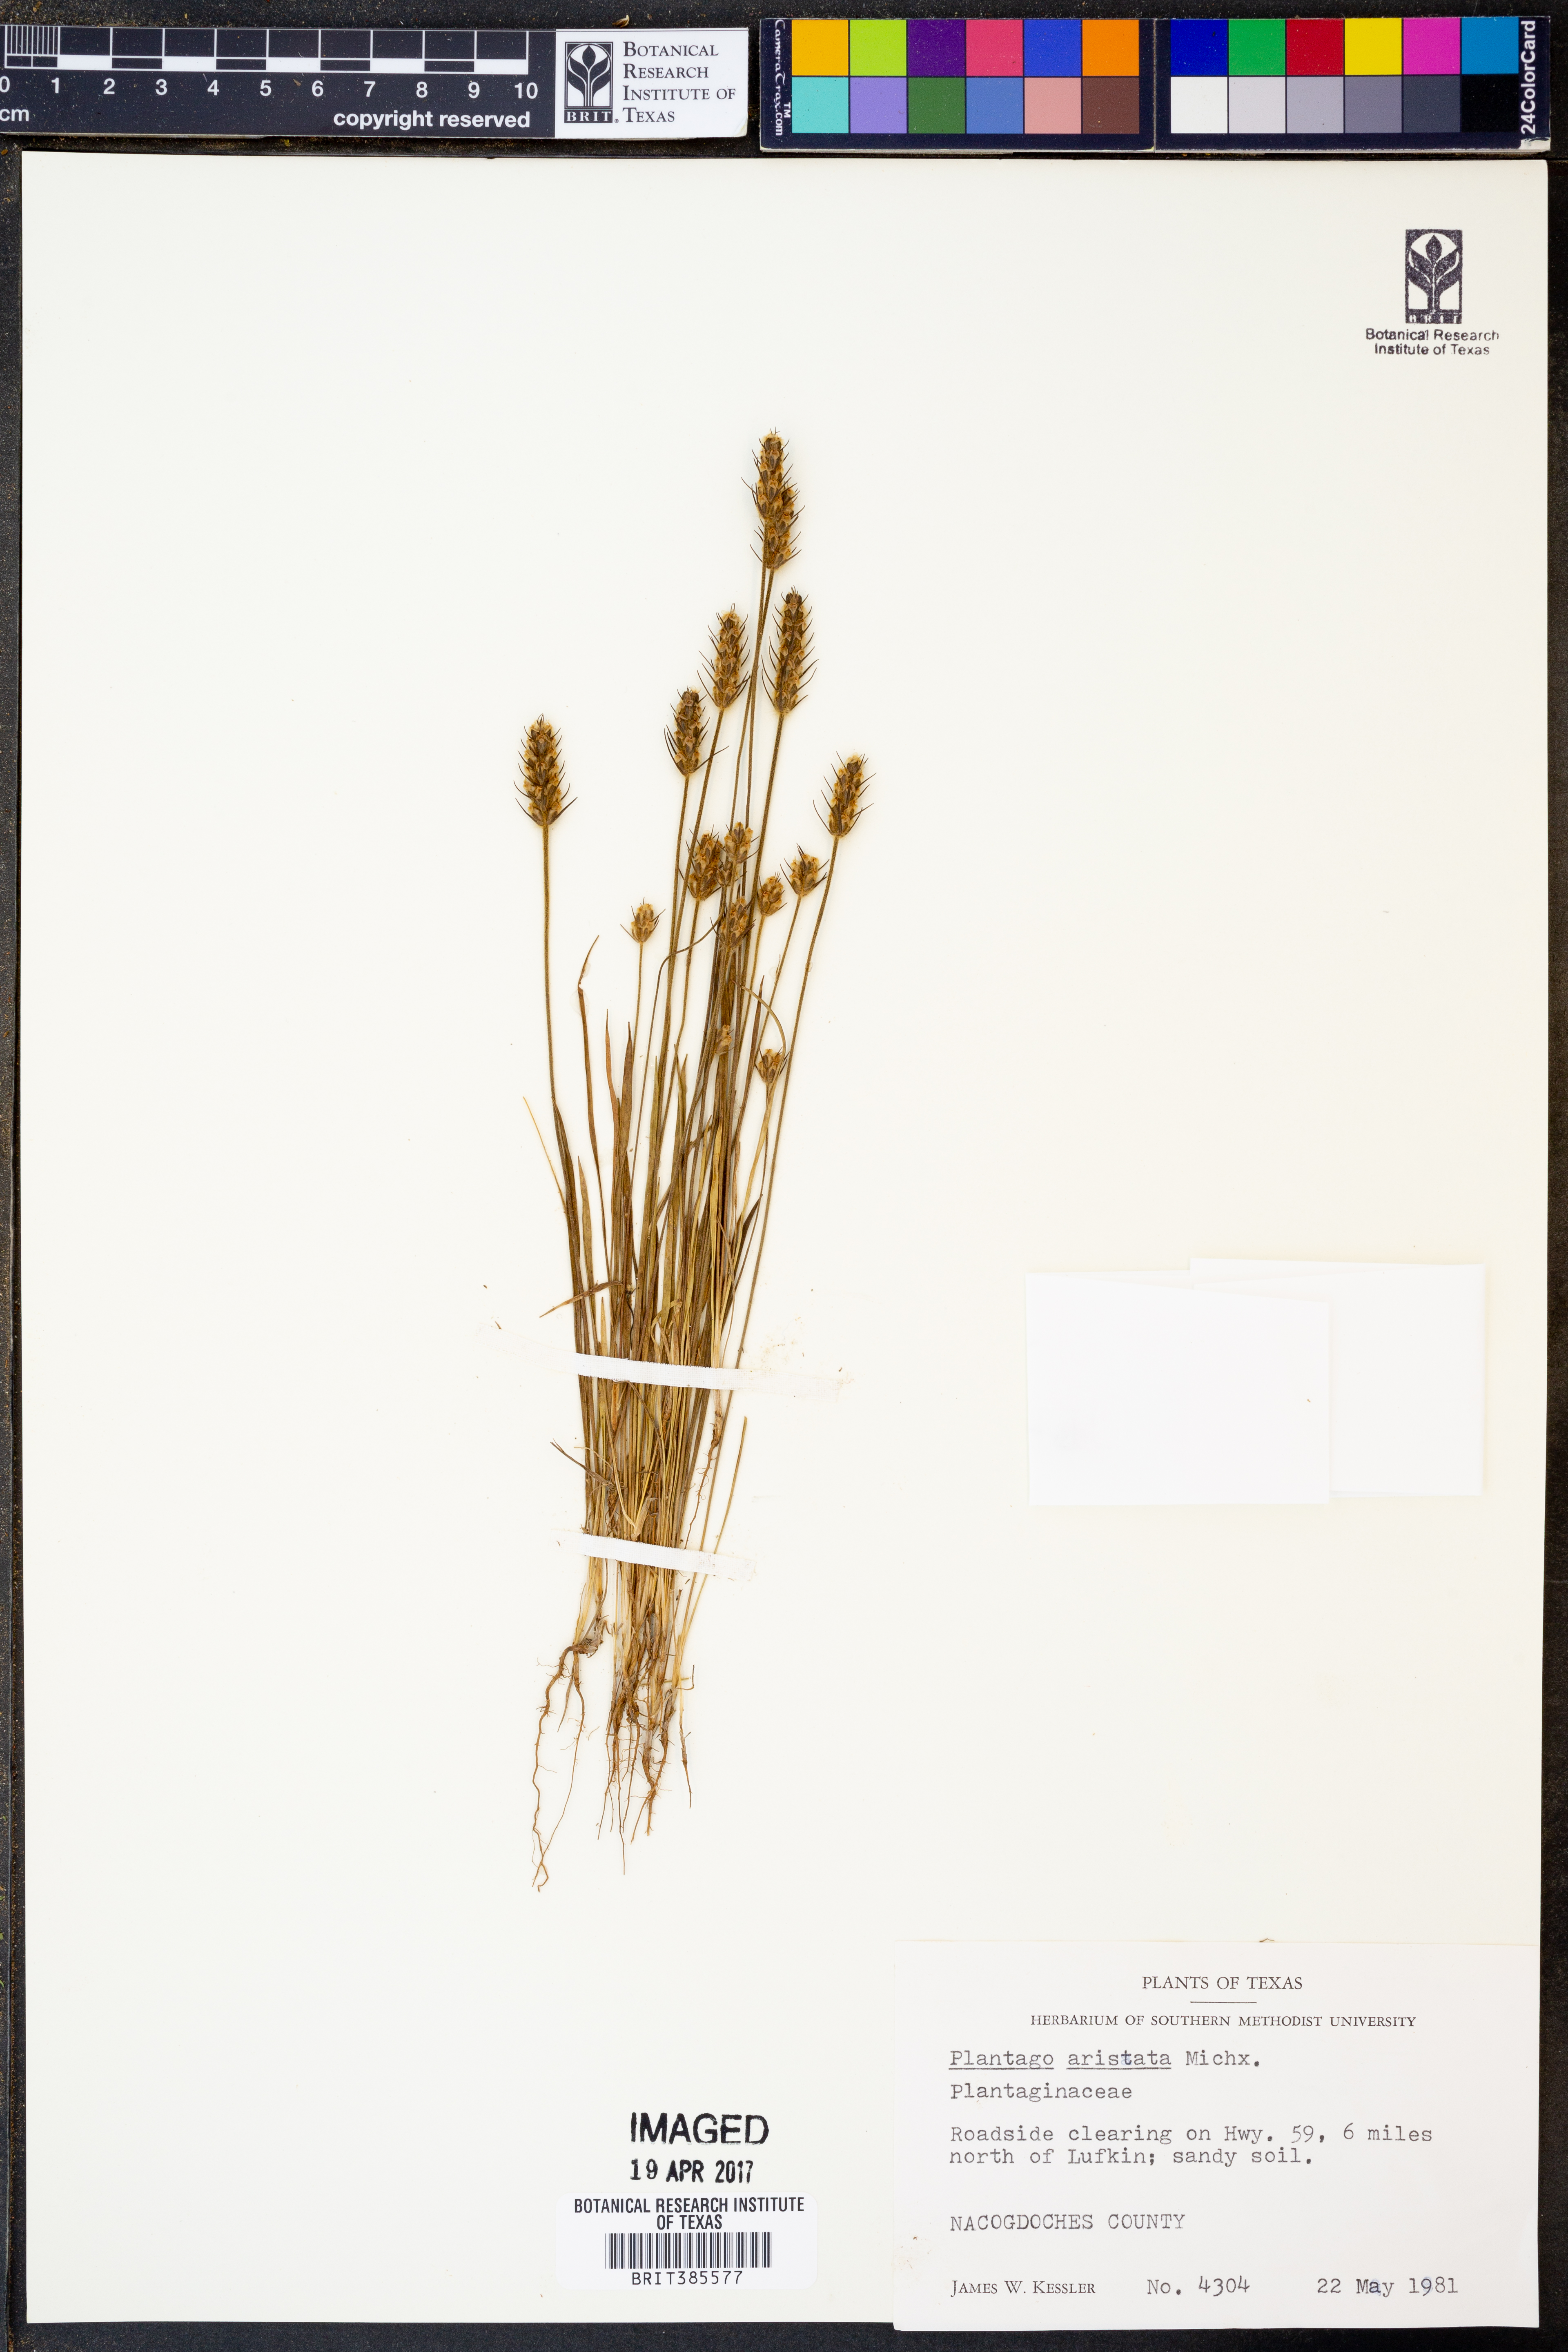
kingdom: Plantae
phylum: Tracheophyta
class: Magnoliopsida
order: Lamiales
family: Plantaginaceae
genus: Plantago
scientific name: Plantago aristata
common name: Bracted plantain
